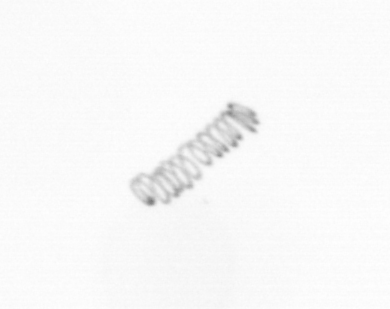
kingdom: Chromista
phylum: Ochrophyta
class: Bacillariophyceae
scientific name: Bacillariophyceae
